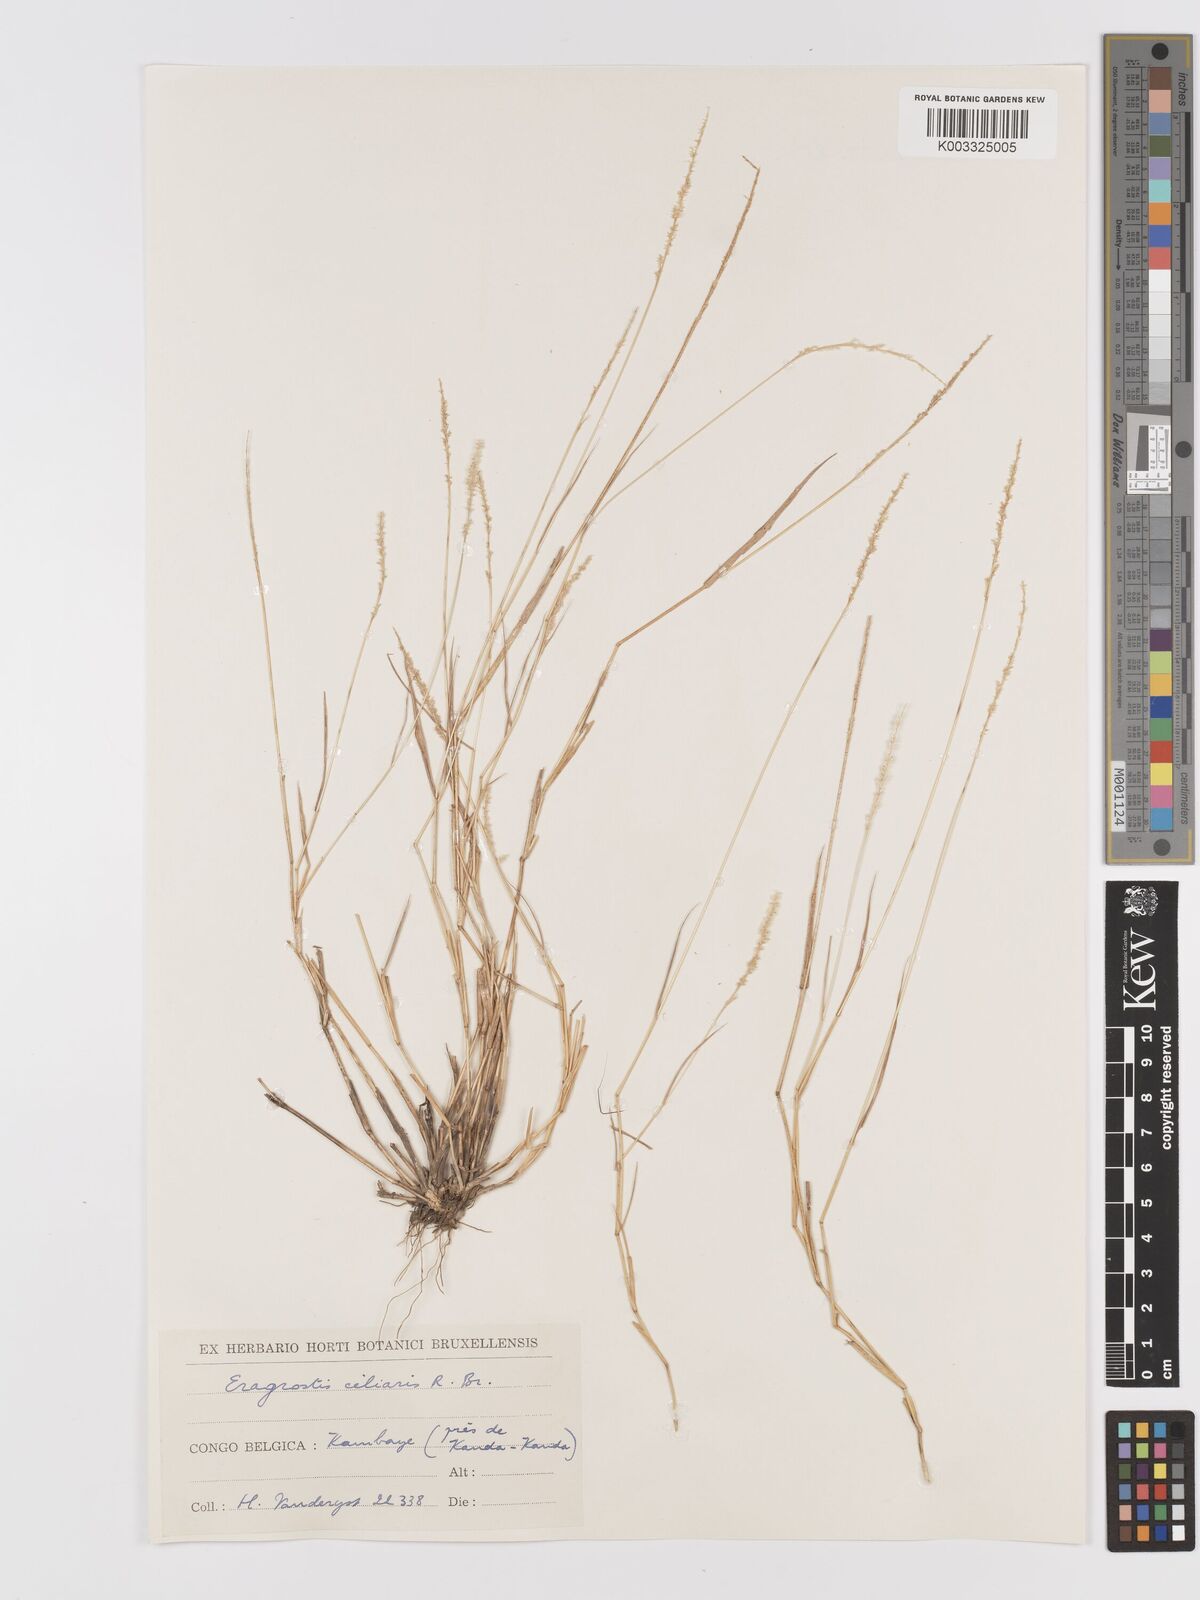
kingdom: Plantae
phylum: Tracheophyta
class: Liliopsida
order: Poales
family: Poaceae
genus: Eragrostis
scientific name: Eragrostis ciliaris
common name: Gophertail lovegrass
